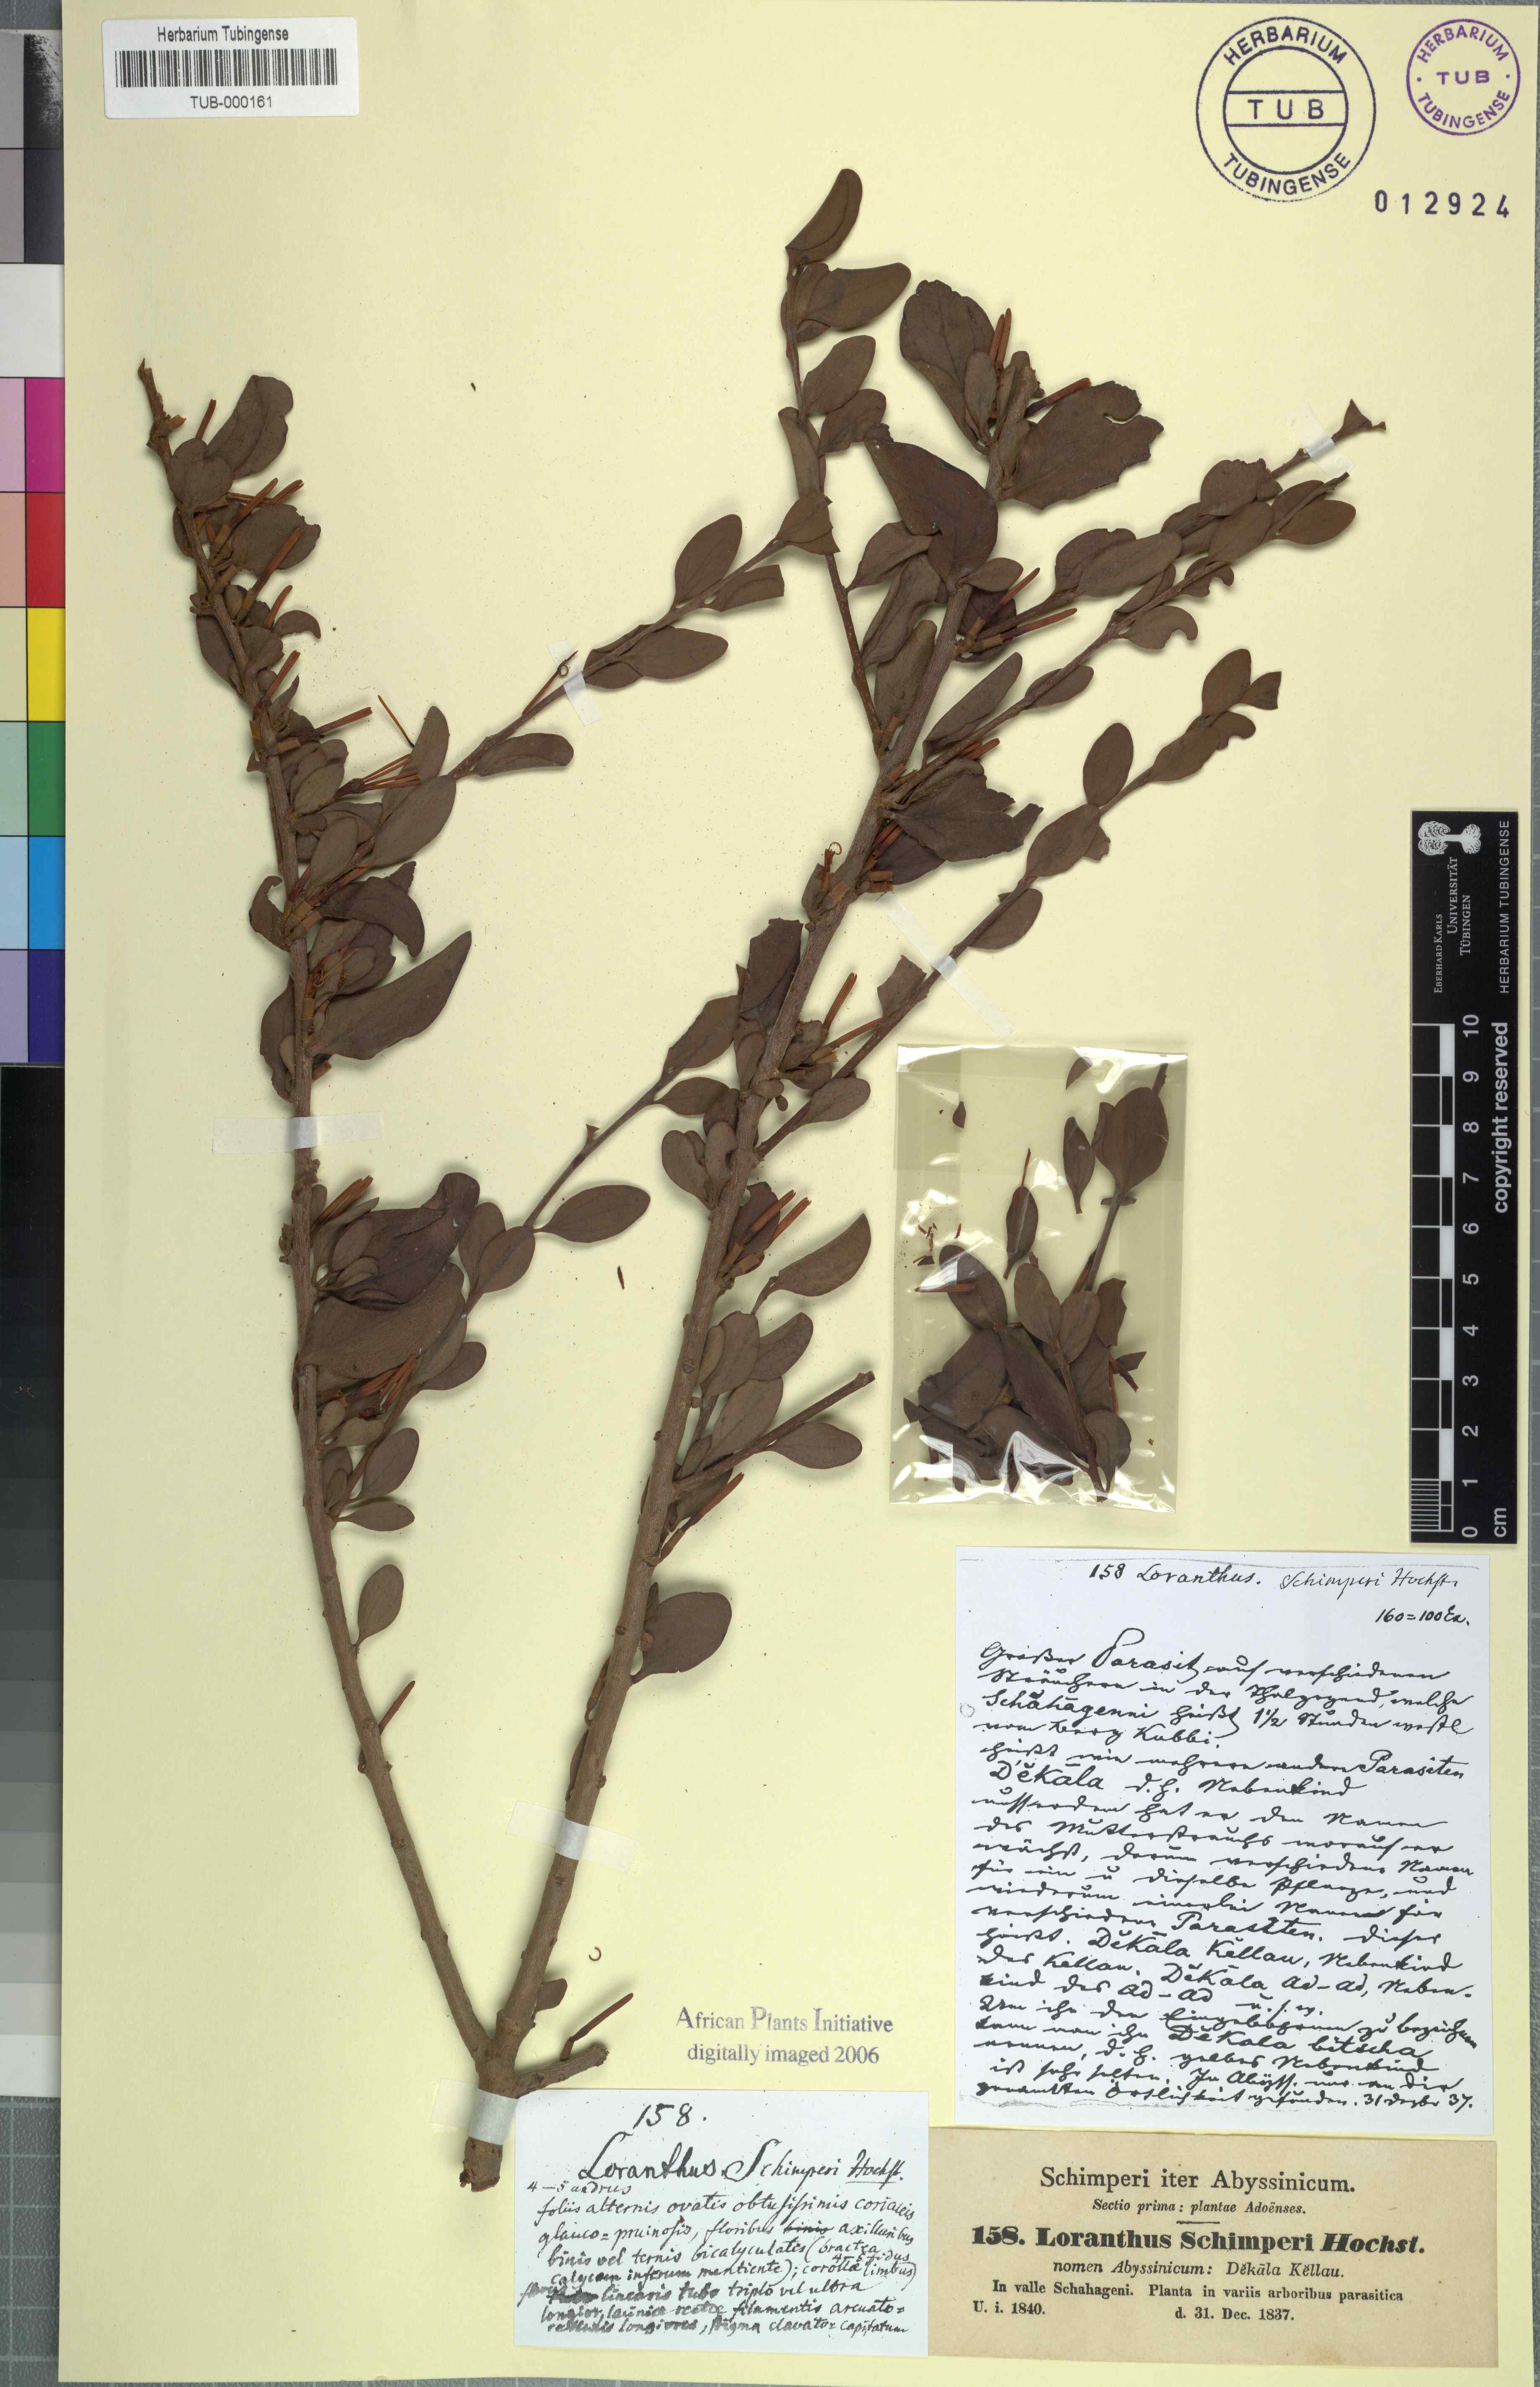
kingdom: Plantae
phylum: Tracheophyta
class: Magnoliopsida
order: Santalales
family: Loranthaceae
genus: Loranthus
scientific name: Loranthus schimperi
